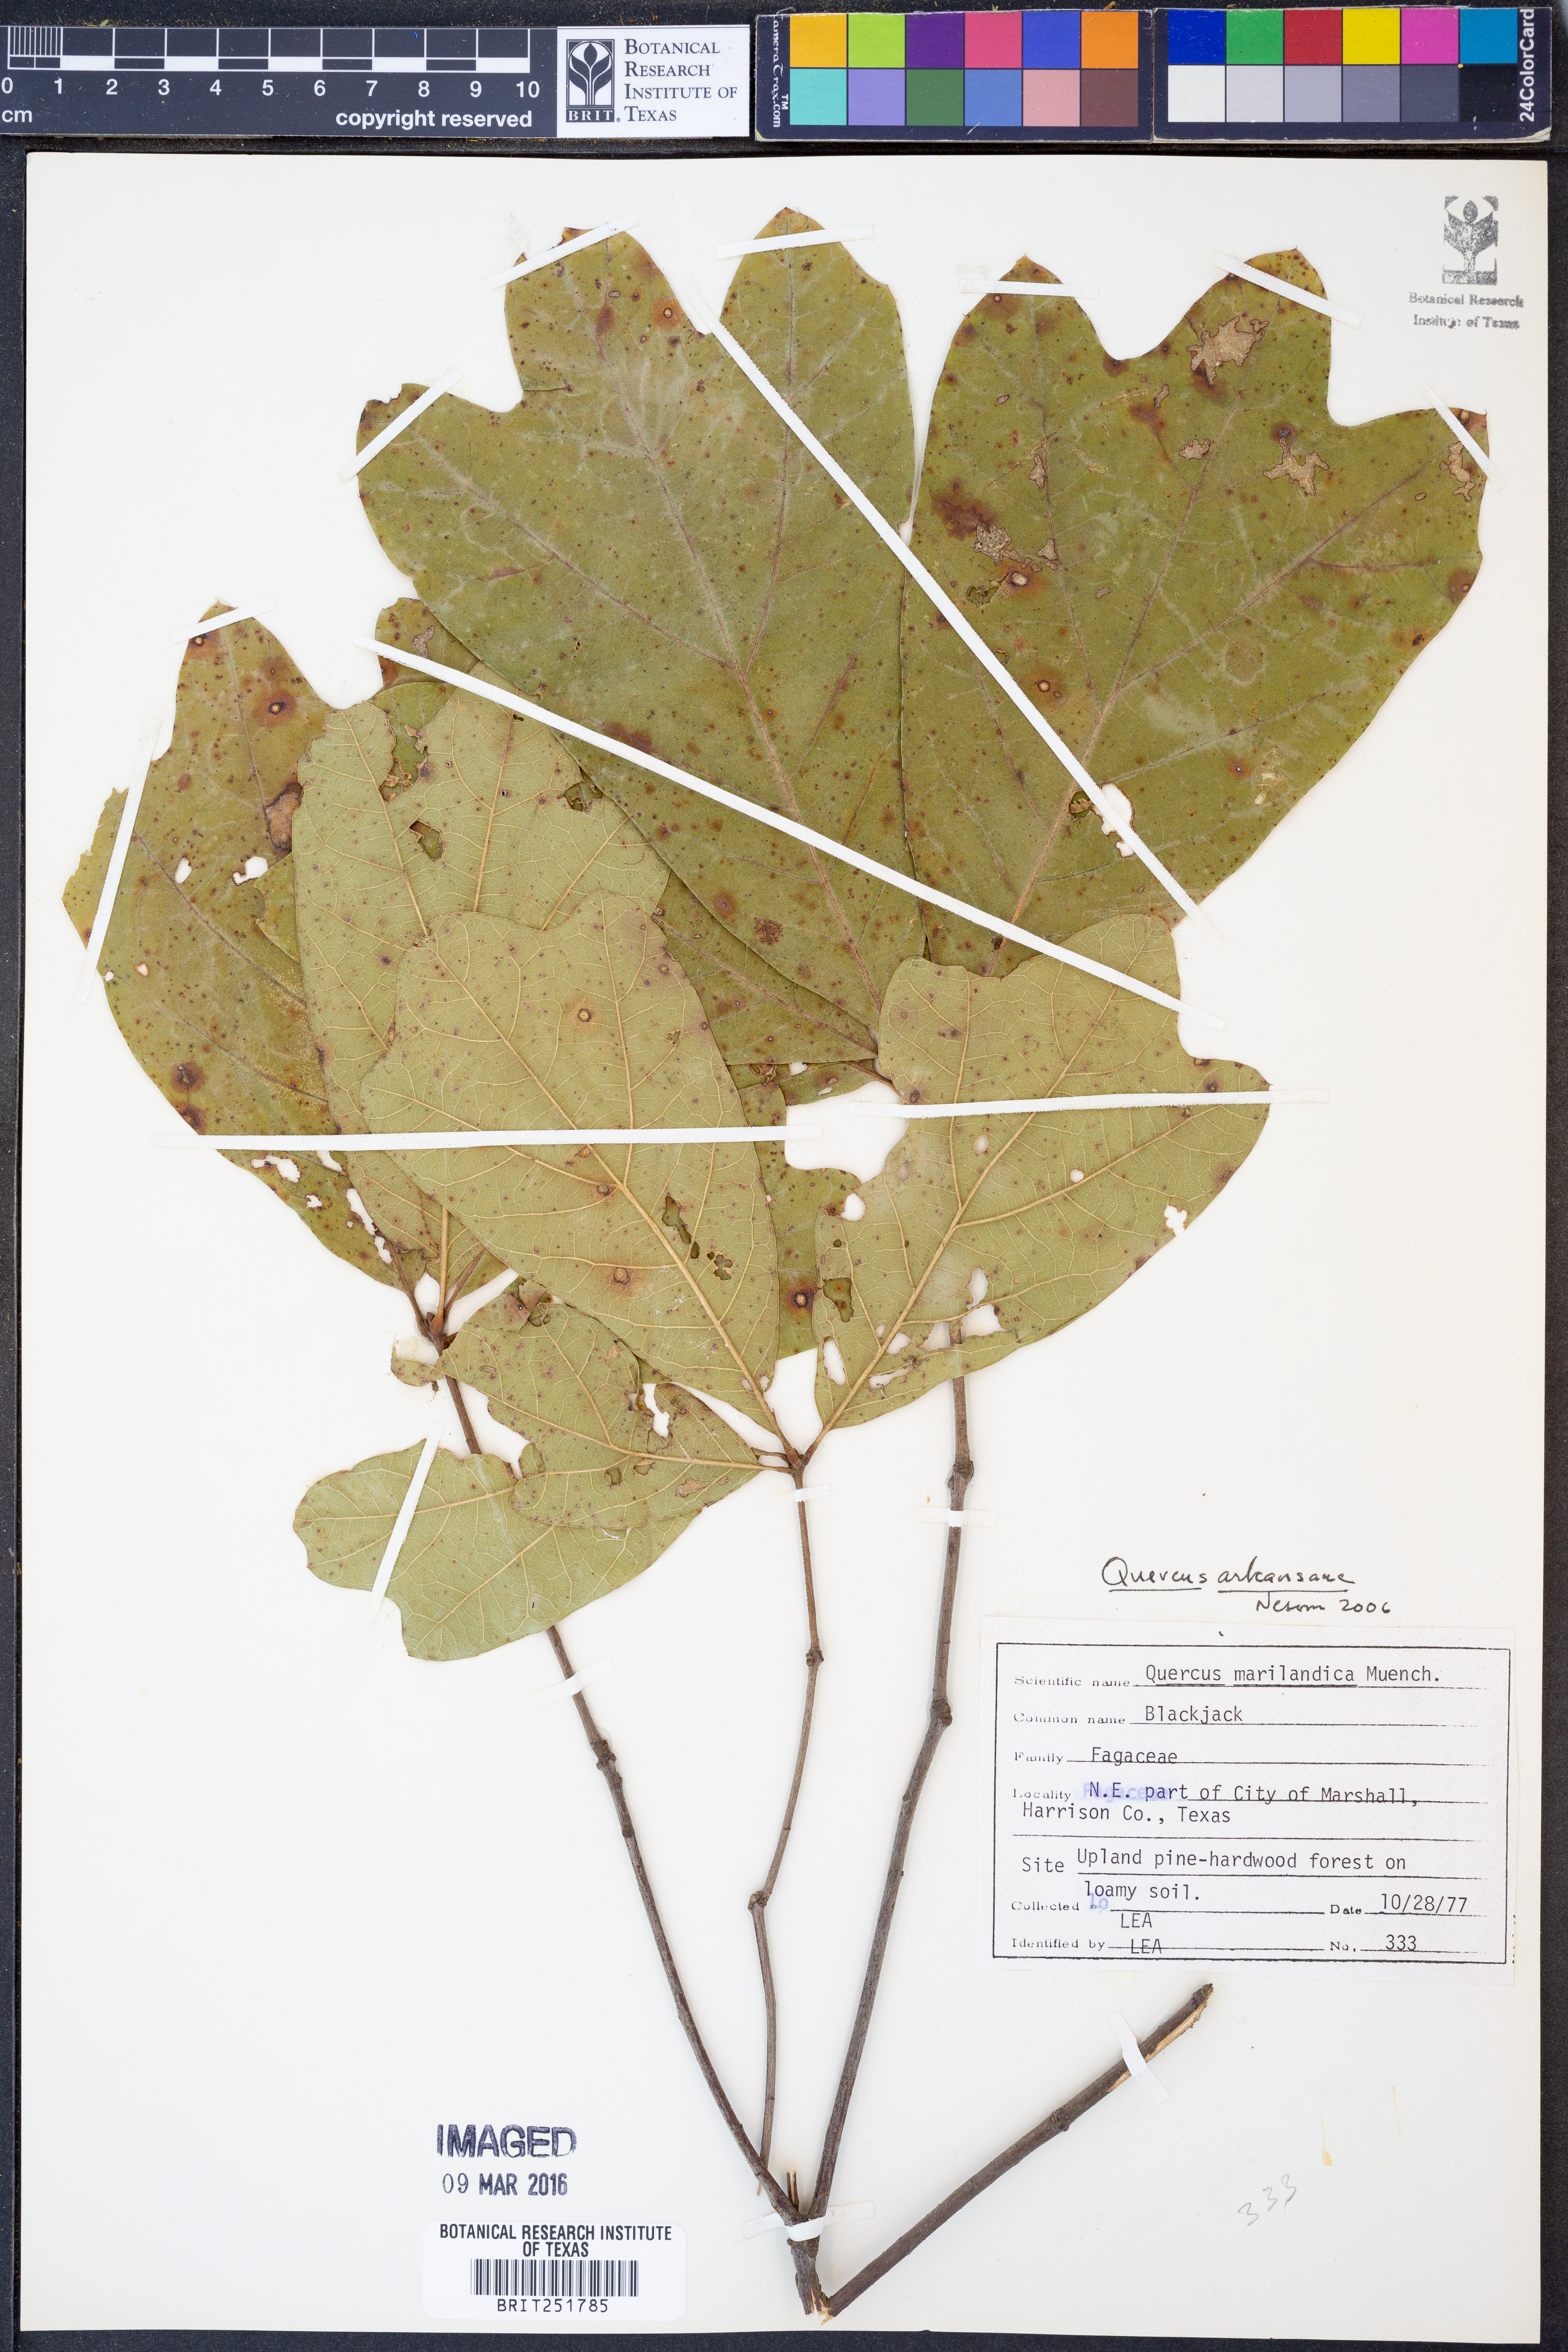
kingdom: Plantae
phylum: Tracheophyta
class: Magnoliopsida
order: Fagales
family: Fagaceae
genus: Quercus
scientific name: Quercus arkansana
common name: Arkansas oak
